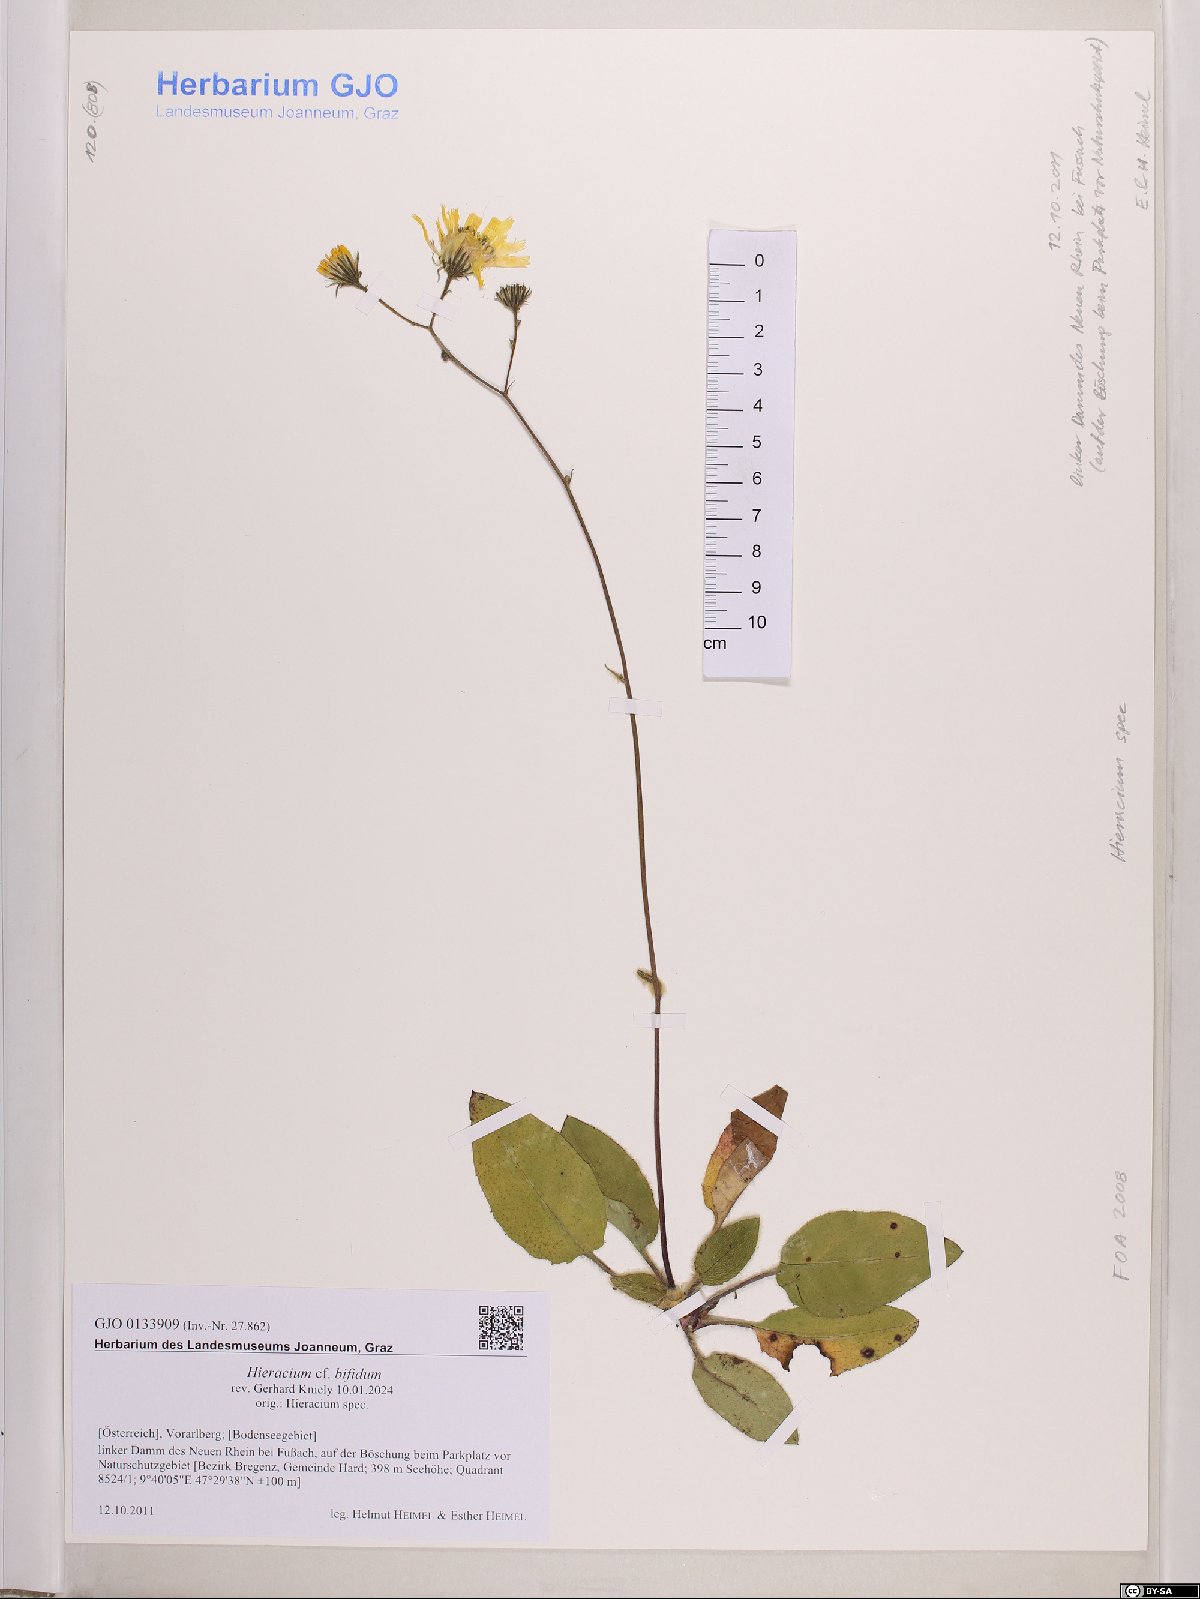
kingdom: Plantae
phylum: Tracheophyta
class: Magnoliopsida
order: Asterales
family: Asteraceae
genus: Hieracium
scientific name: Hieracium bifidum
